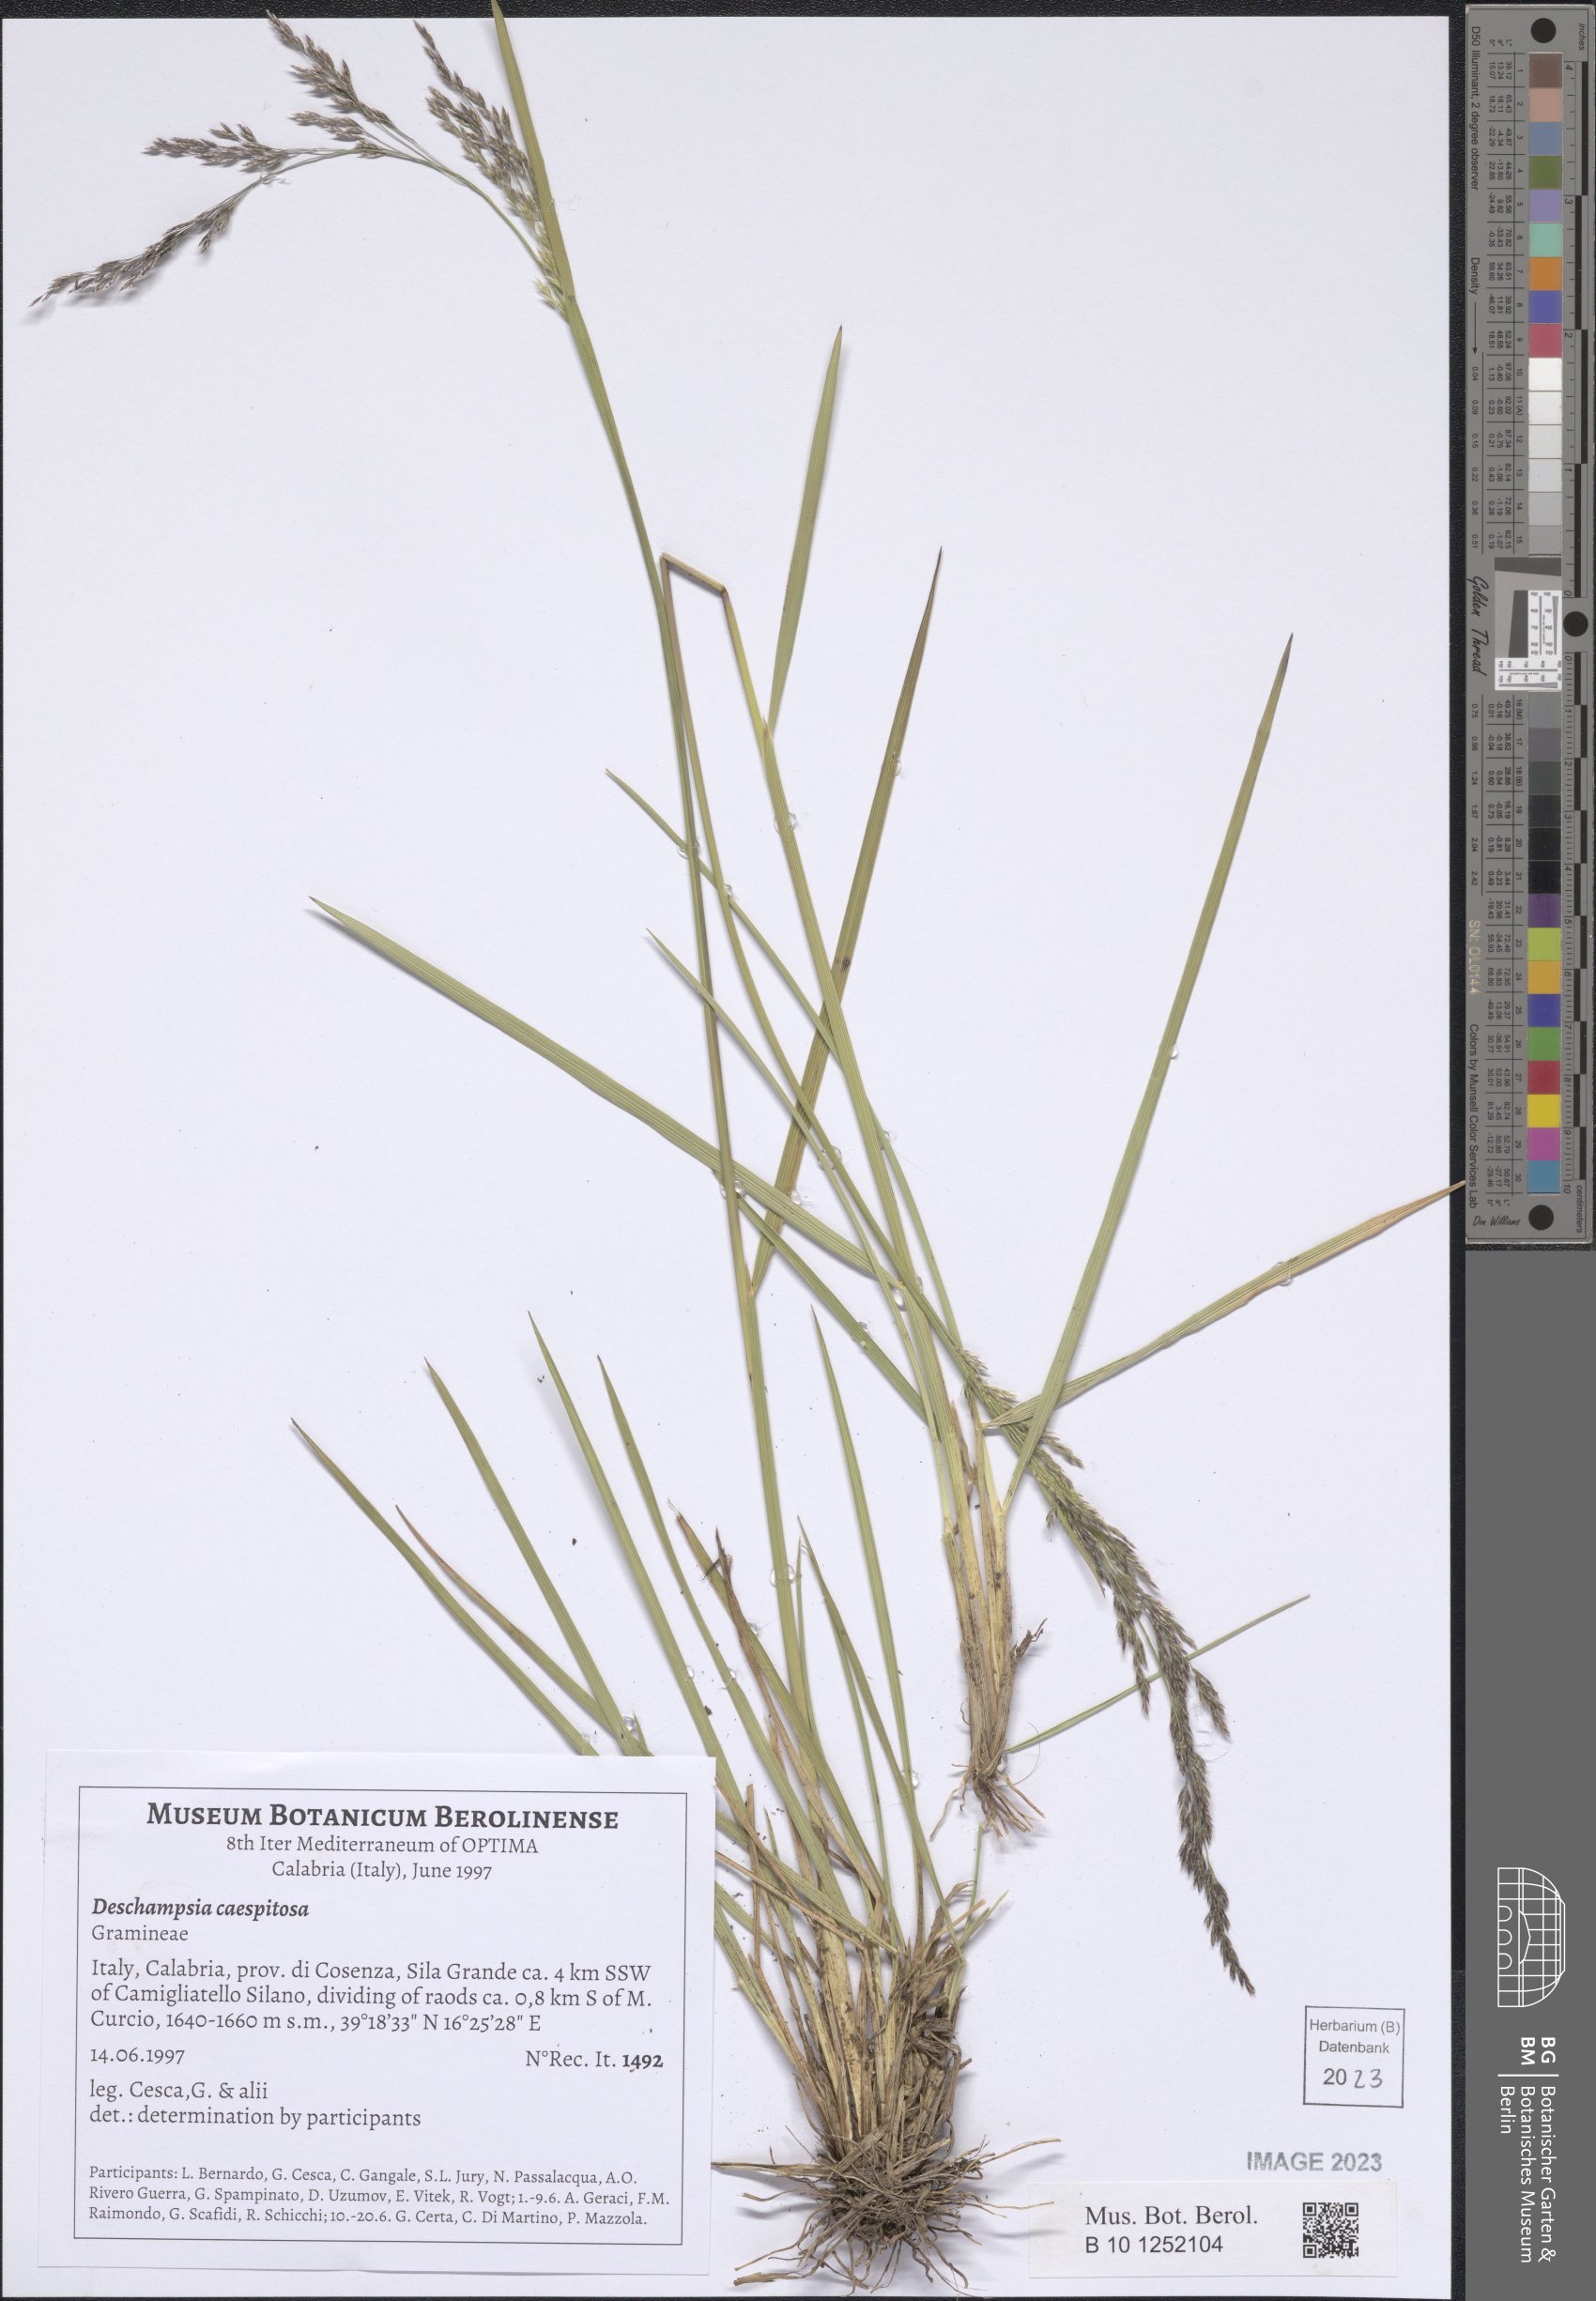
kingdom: Plantae
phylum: Tracheophyta
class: Liliopsida
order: Poales
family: Poaceae
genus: Deschampsia
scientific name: Deschampsia cespitosa
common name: Tufted hair-grass
